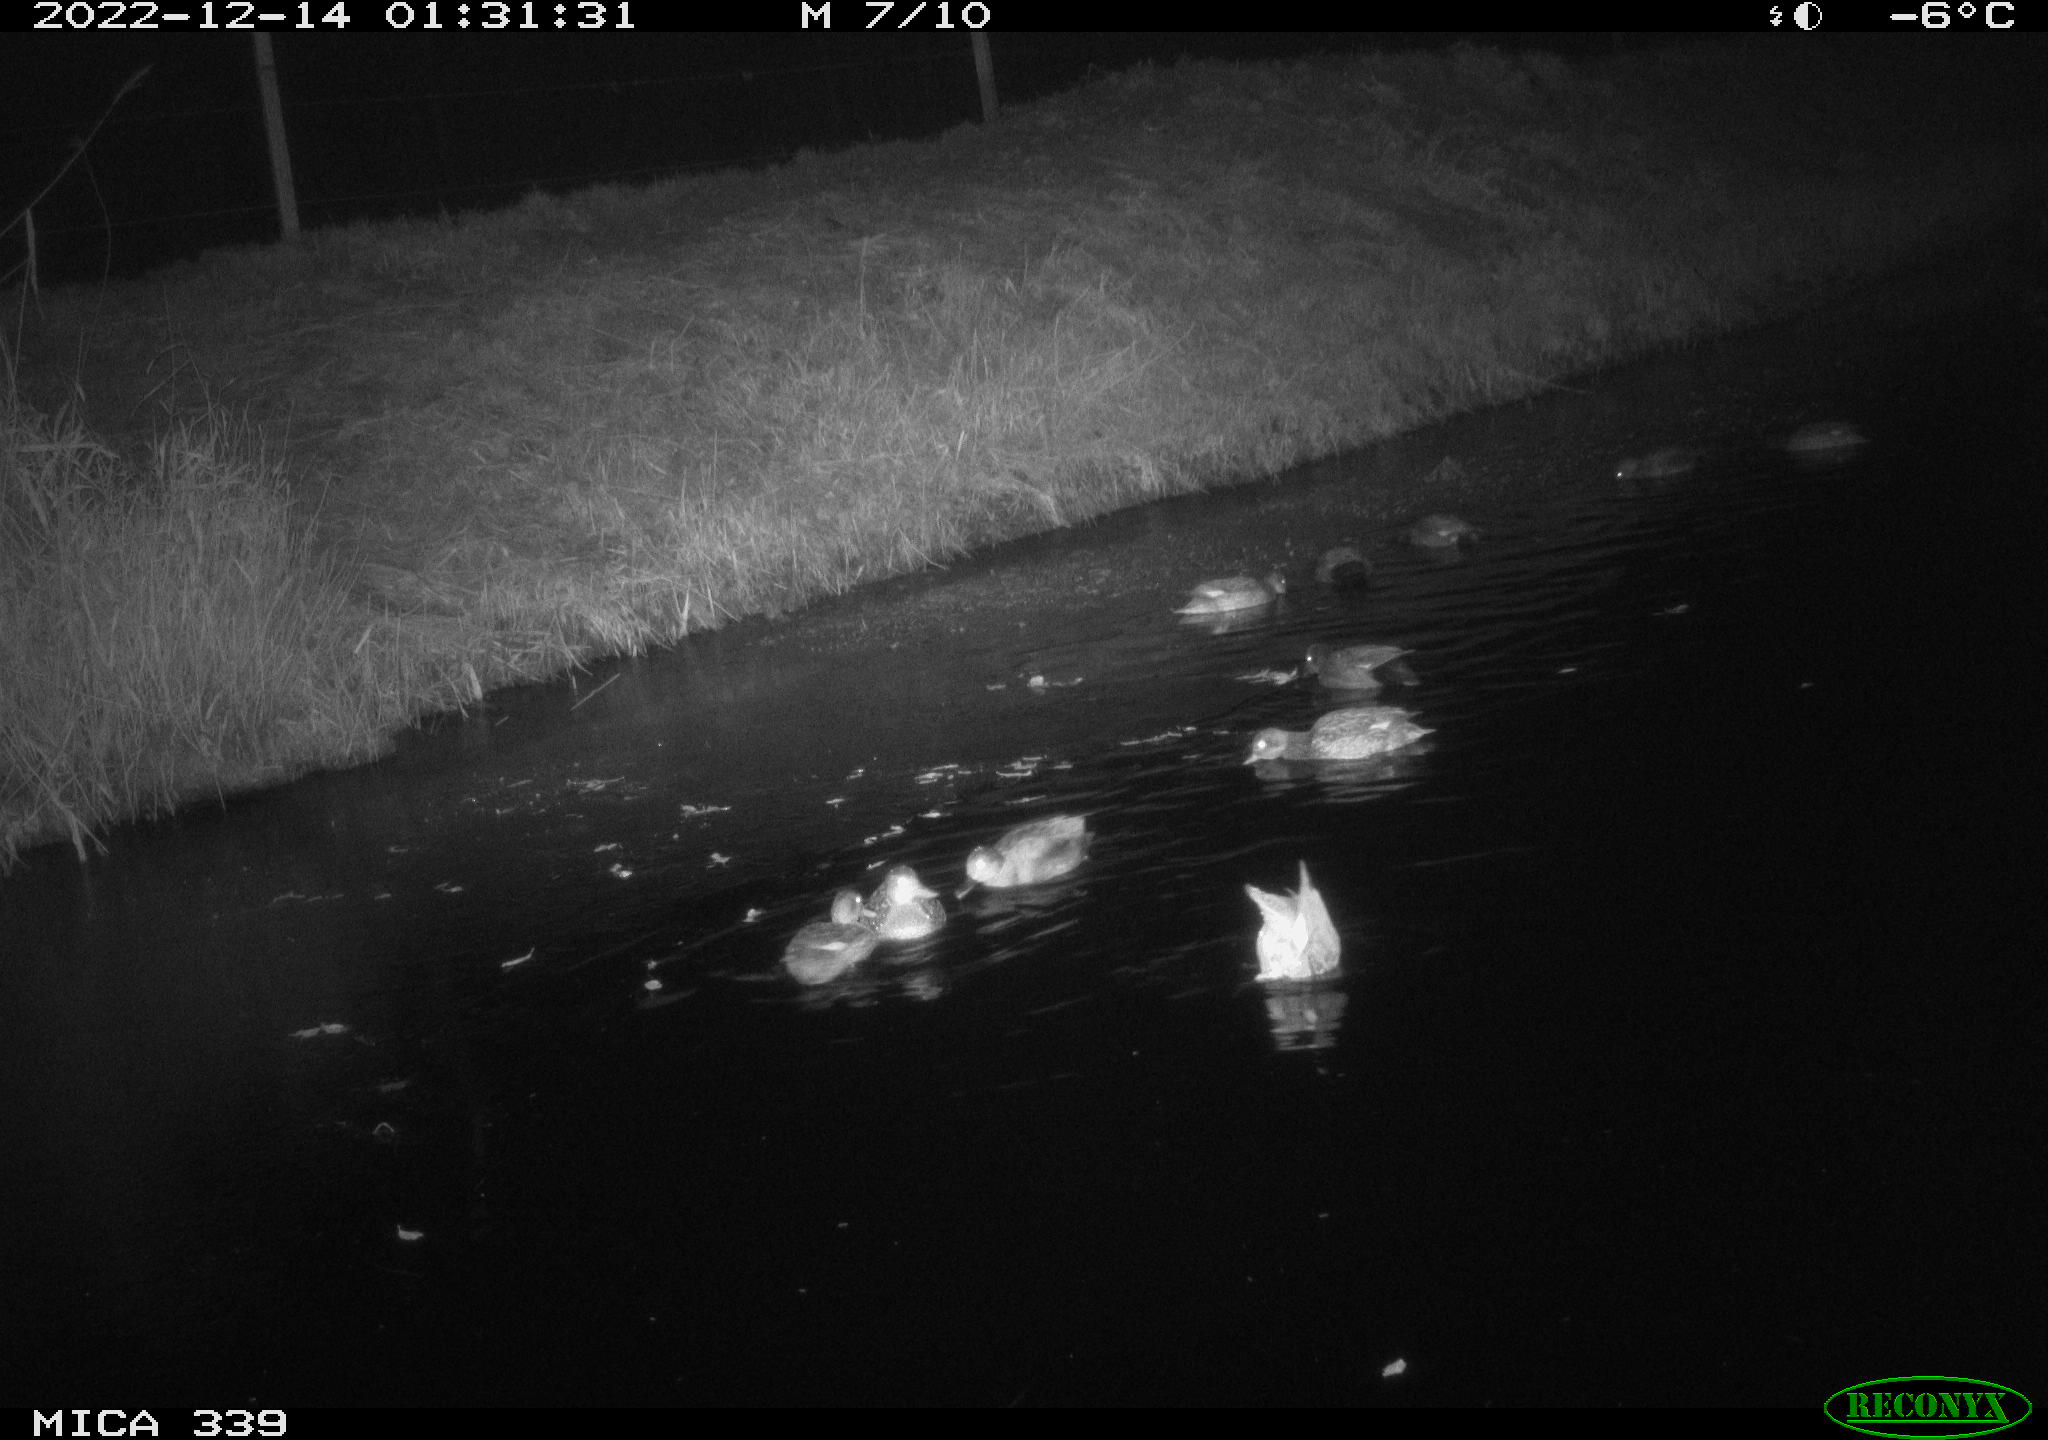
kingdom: Animalia
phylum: Chordata
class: Aves
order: Anseriformes
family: Anatidae
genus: Anas
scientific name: Anas
